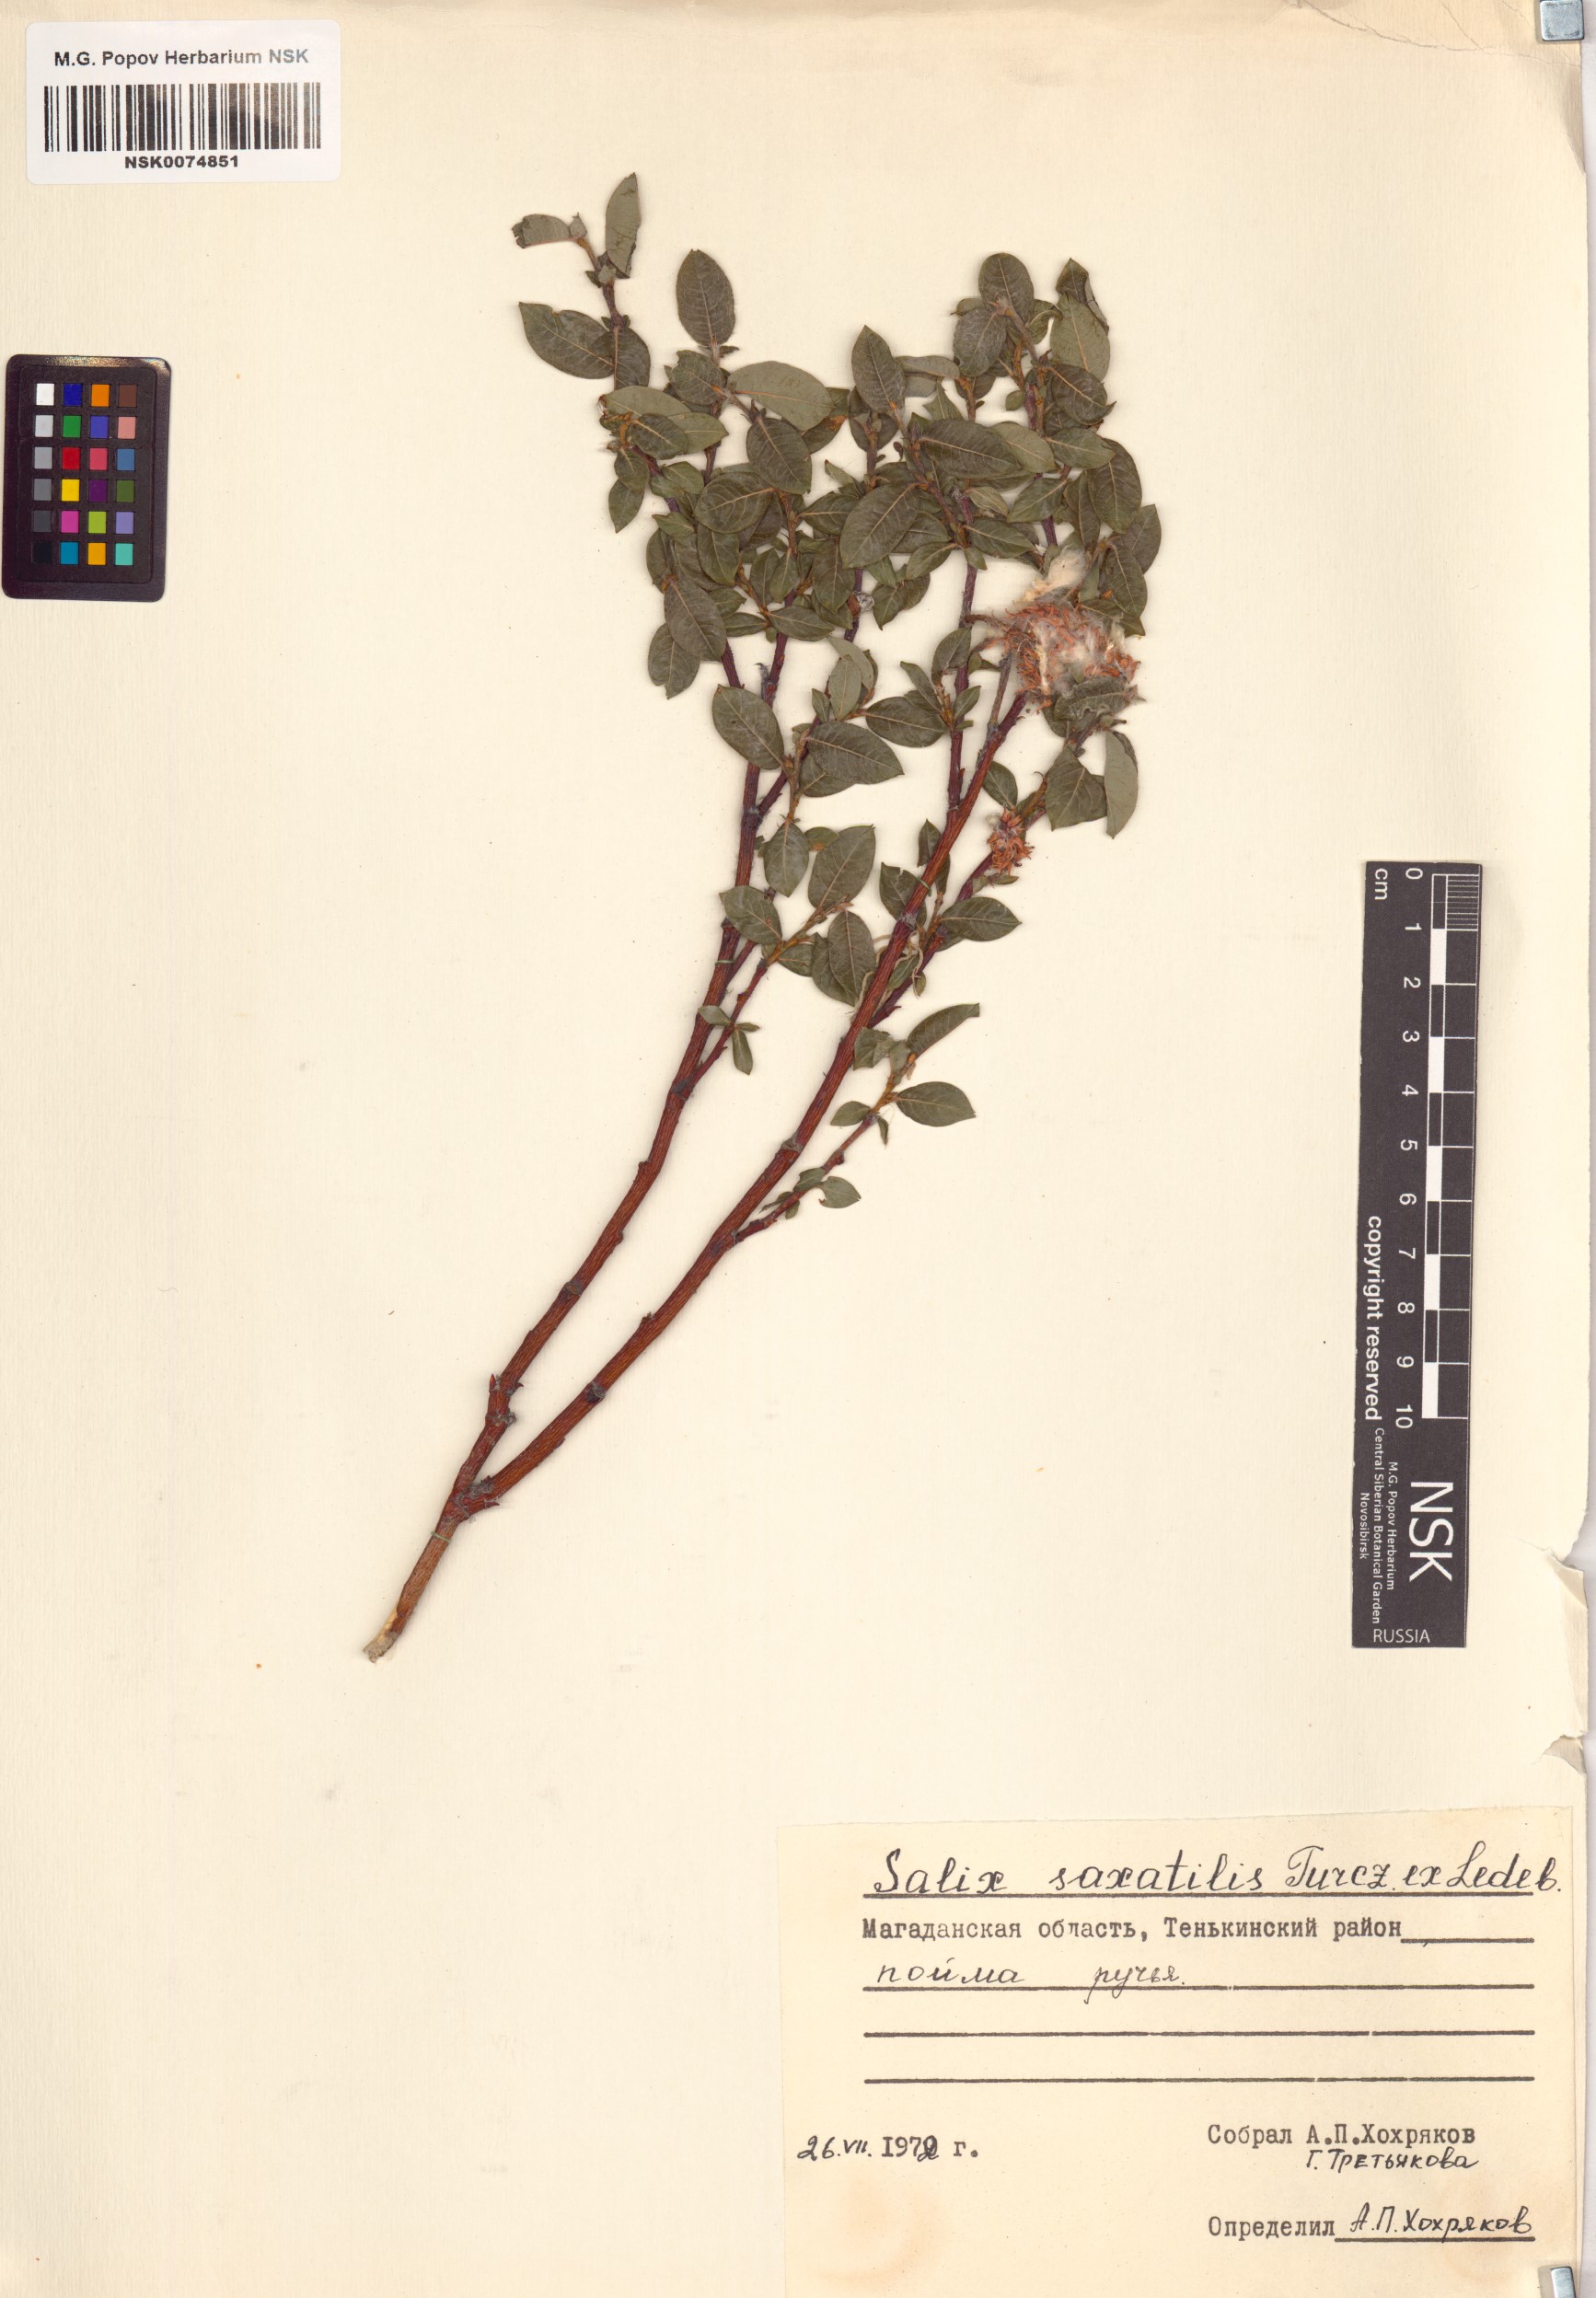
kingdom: Plantae
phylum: Tracheophyta
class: Magnoliopsida
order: Malpighiales
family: Salicaceae
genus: Salix
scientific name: Salix saxatilis
